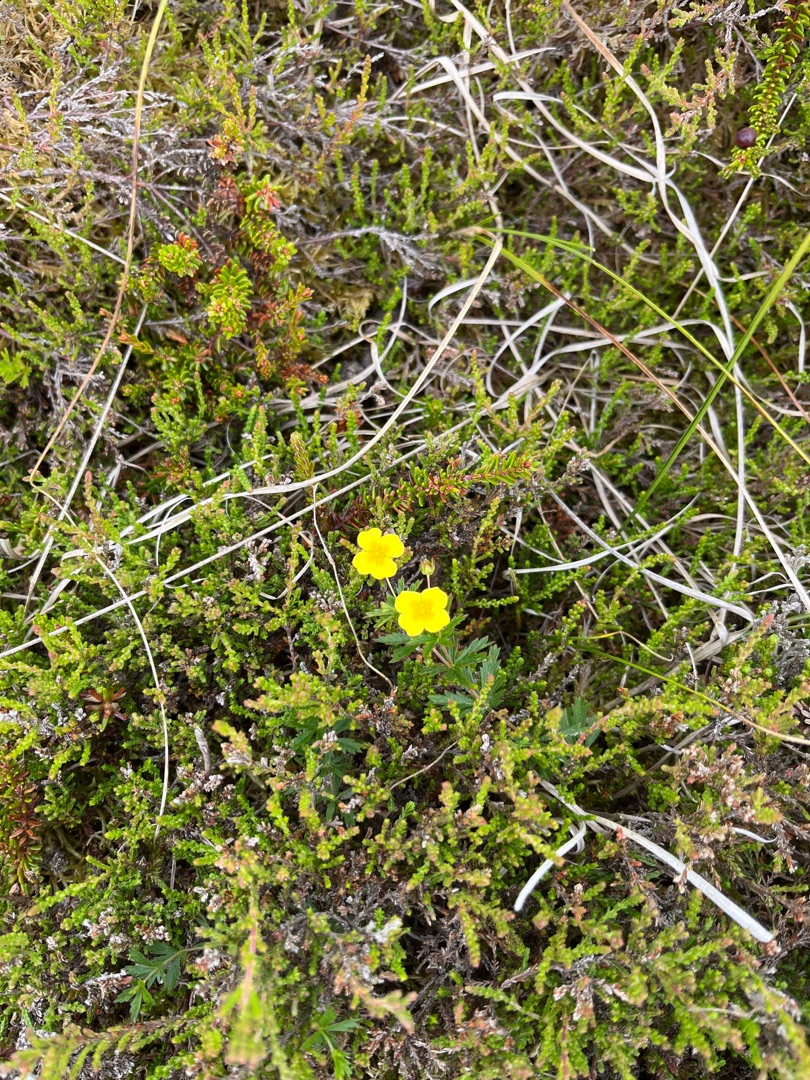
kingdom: Plantae
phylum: Tracheophyta
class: Magnoliopsida
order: Rosales
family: Rosaceae
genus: Potentilla
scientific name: Potentilla erecta
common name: Tormentil
